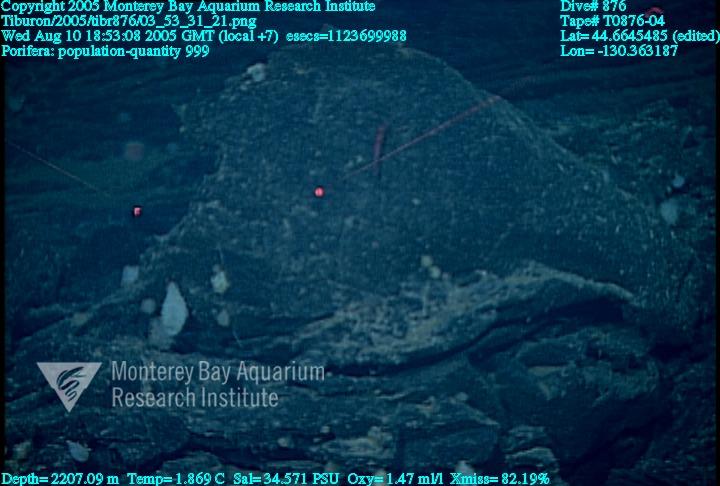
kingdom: Animalia
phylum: Porifera
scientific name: Porifera
